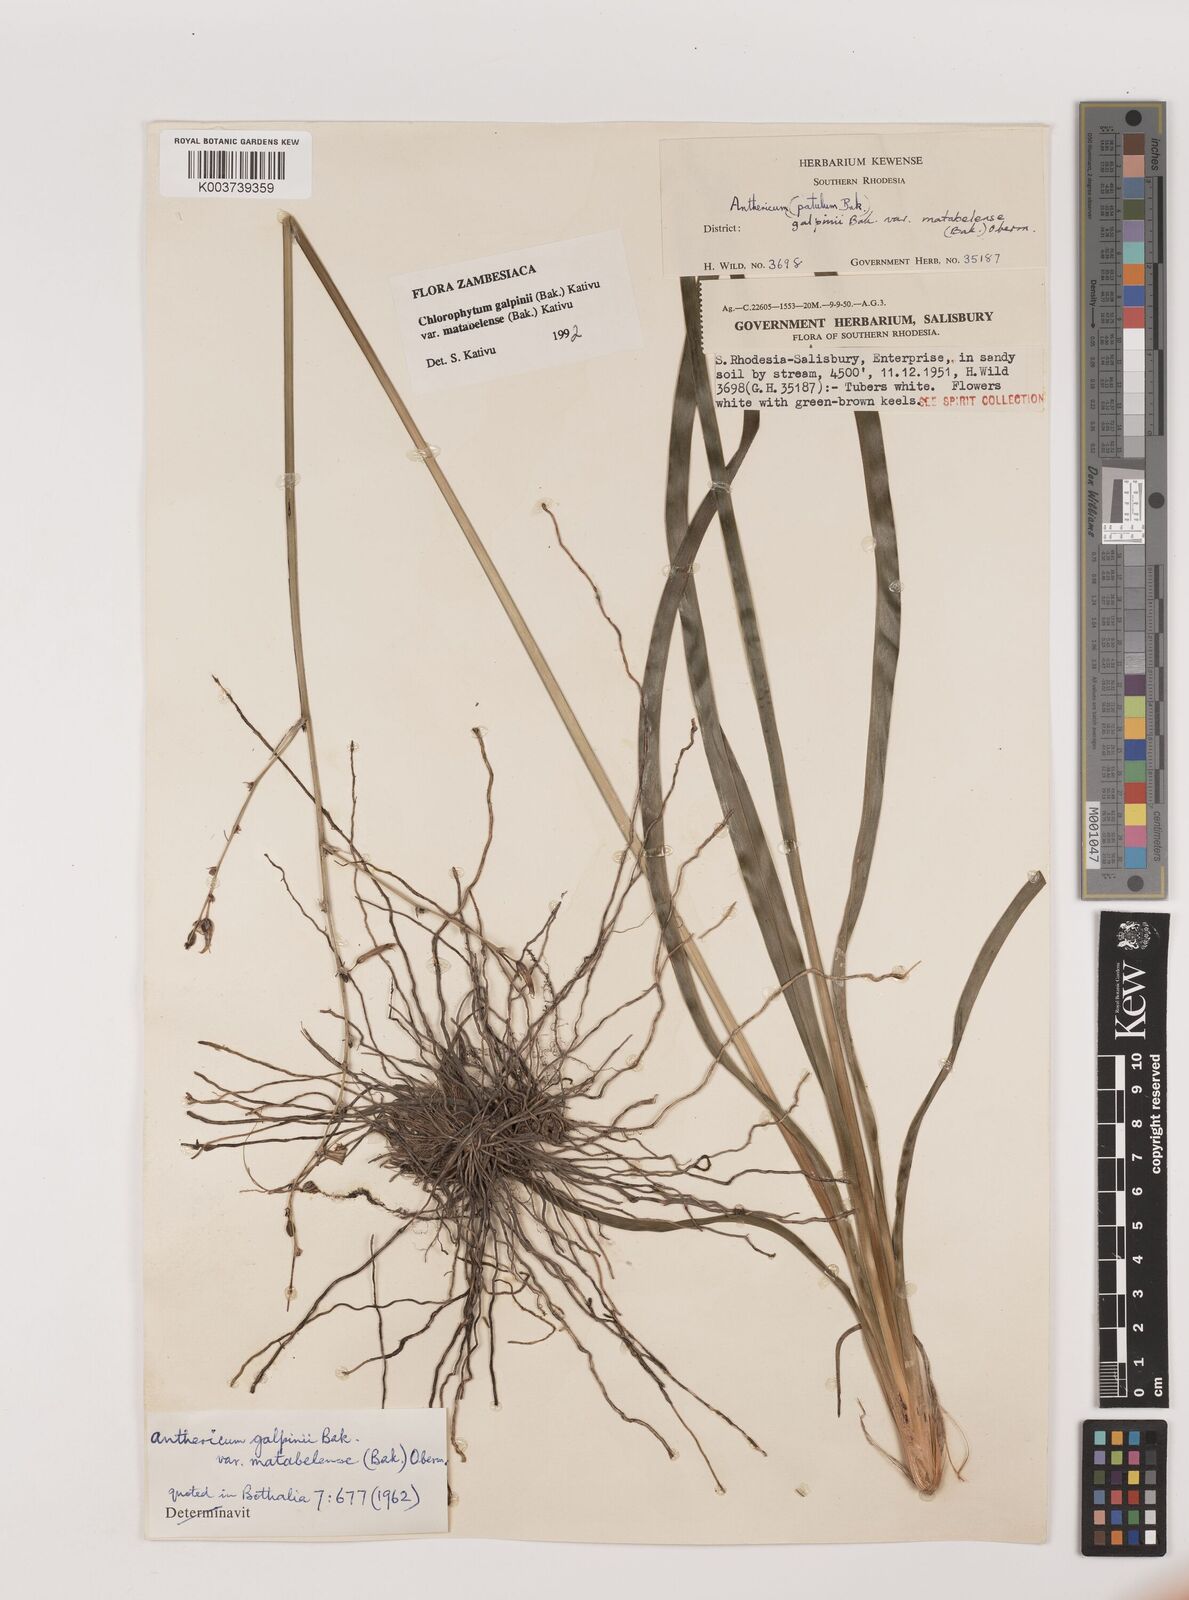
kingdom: Plantae
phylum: Tracheophyta
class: Liliopsida
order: Asparagales
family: Asparagaceae
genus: Chlorophytum
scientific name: Chlorophytum galpinii
